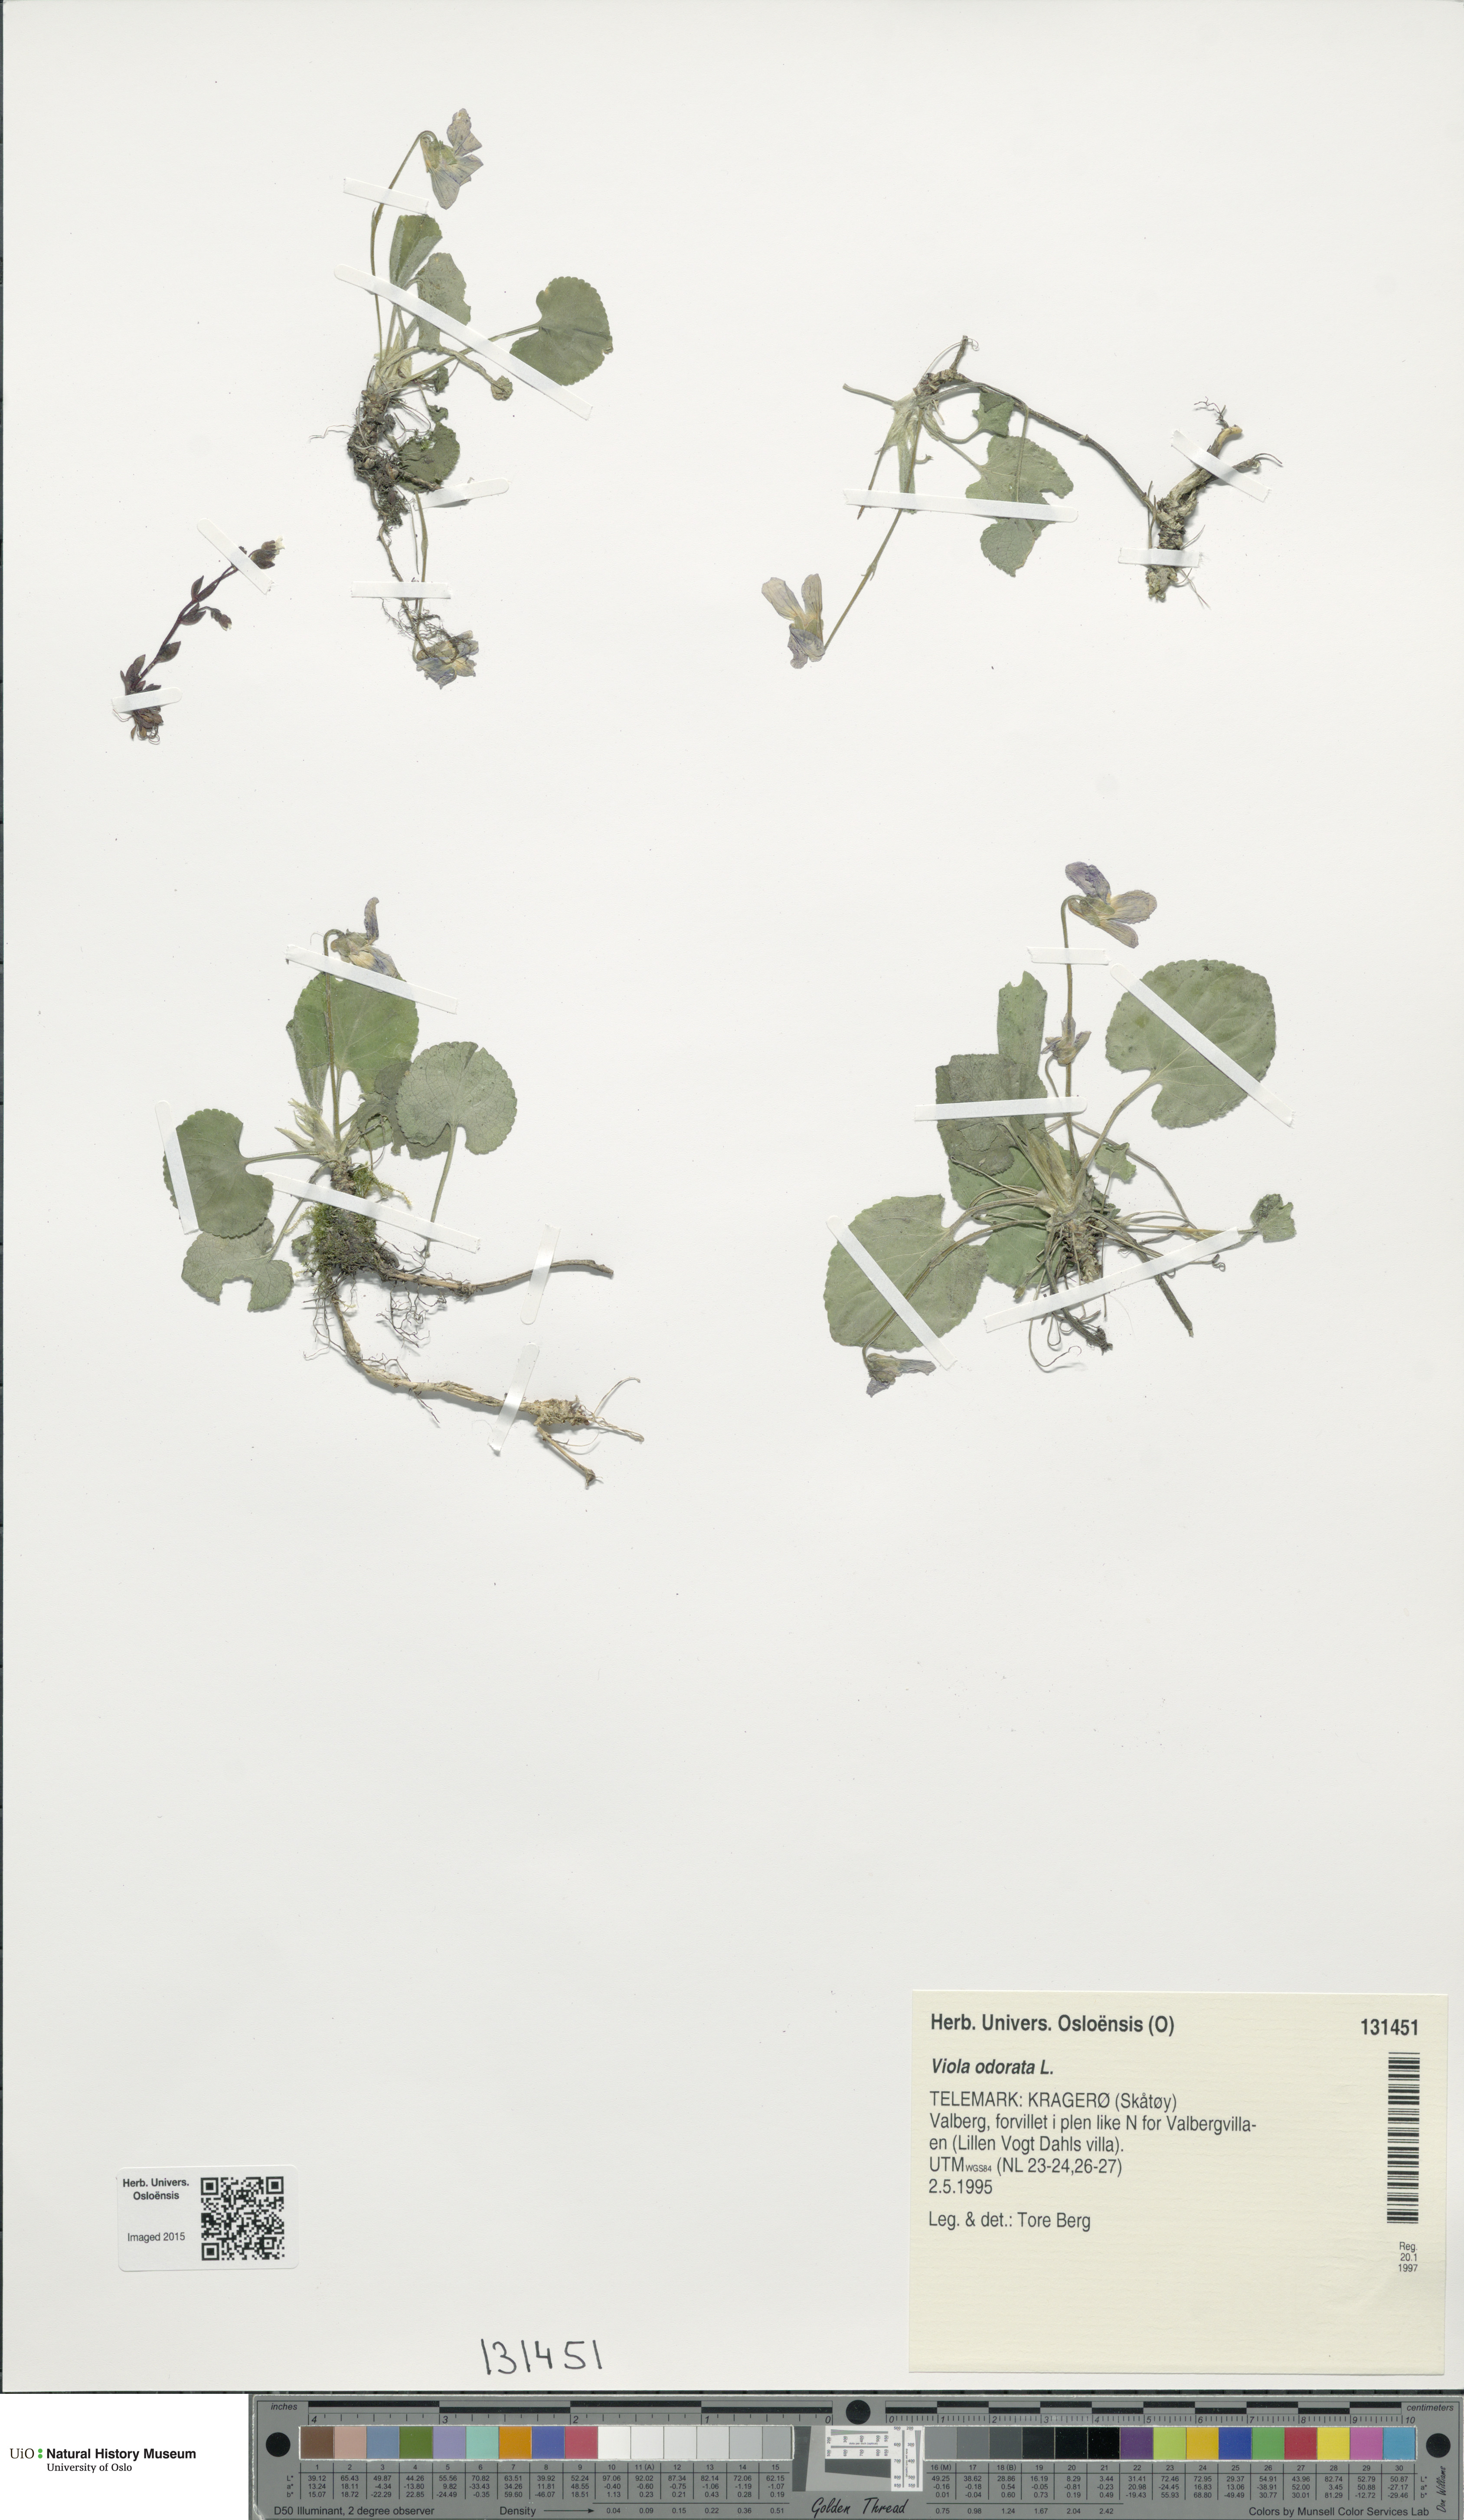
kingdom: Plantae
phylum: Tracheophyta
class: Magnoliopsida
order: Malpighiales
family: Violaceae
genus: Viola
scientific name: Viola odorata
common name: Sweet violet
